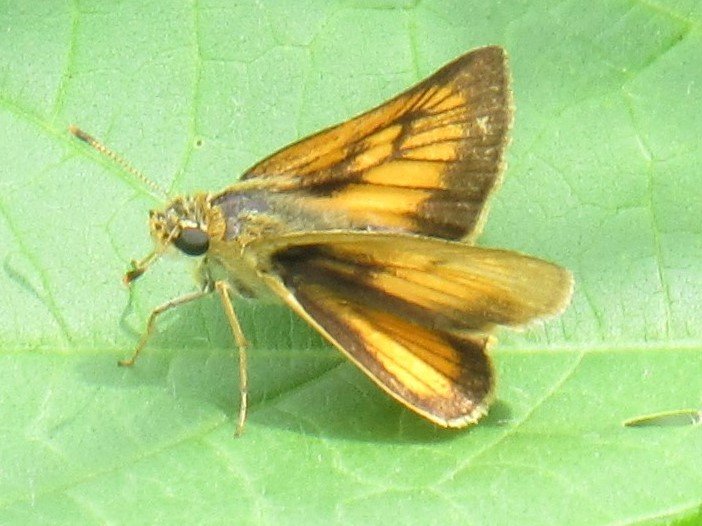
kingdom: Animalia
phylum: Arthropoda
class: Insecta
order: Lepidoptera
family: Hesperiidae
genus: Atrytone
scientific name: Atrytone delaware
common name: Delaware Skipper
